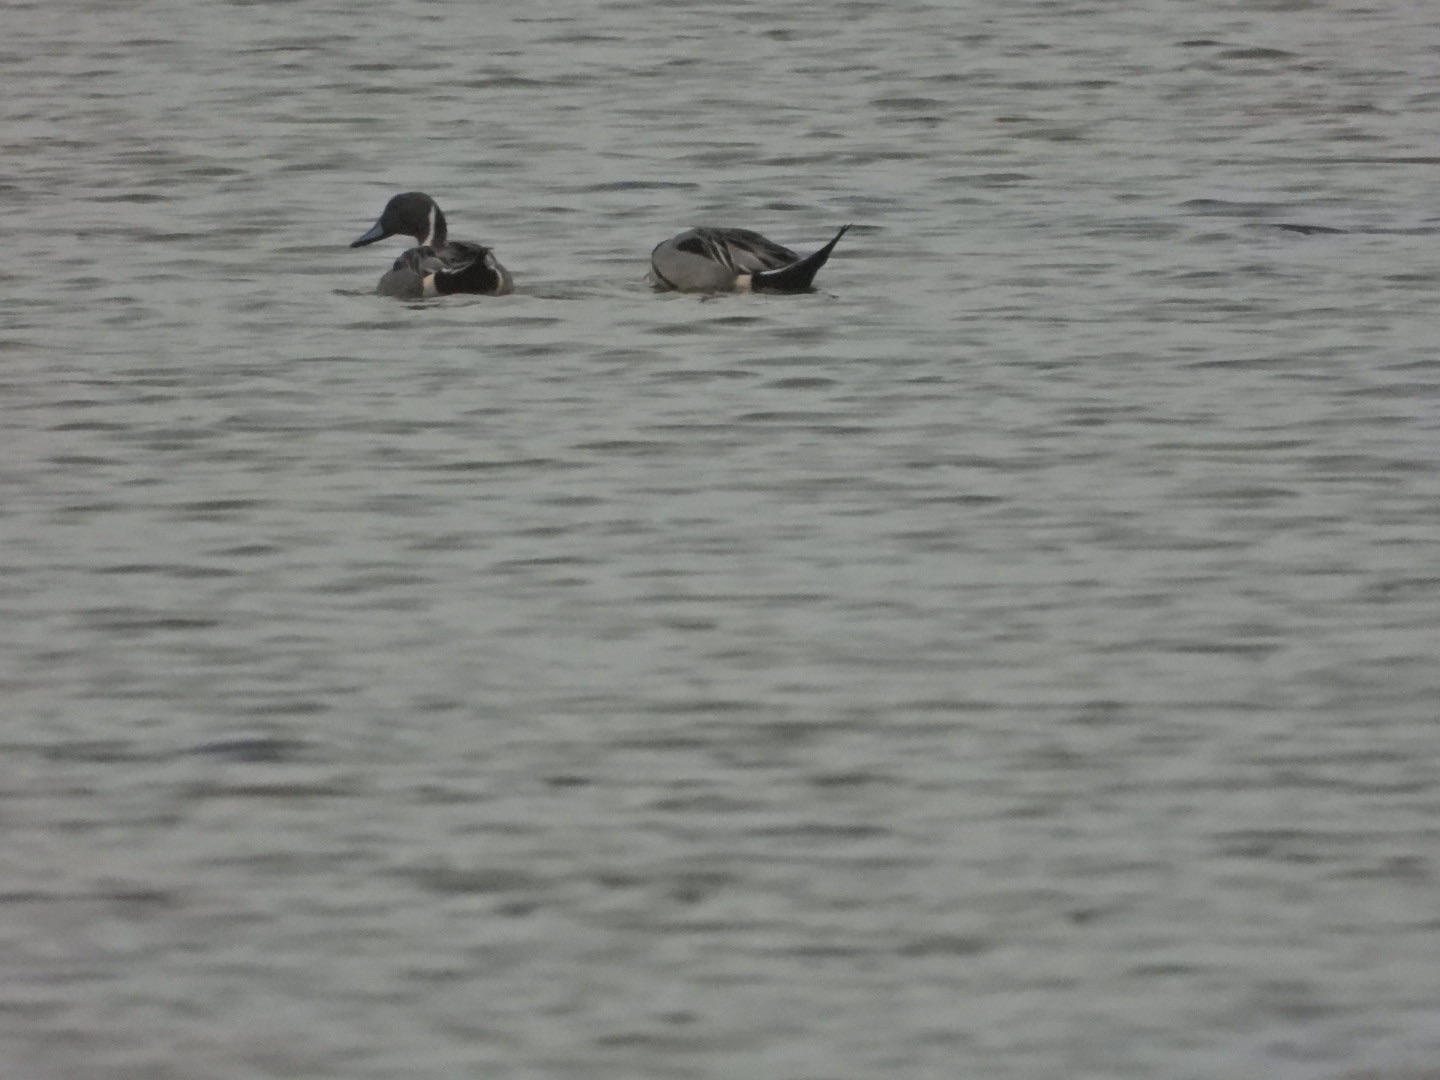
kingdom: Animalia
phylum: Chordata
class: Aves
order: Anseriformes
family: Anatidae
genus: Anas
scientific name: Anas acuta
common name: Spidsand
